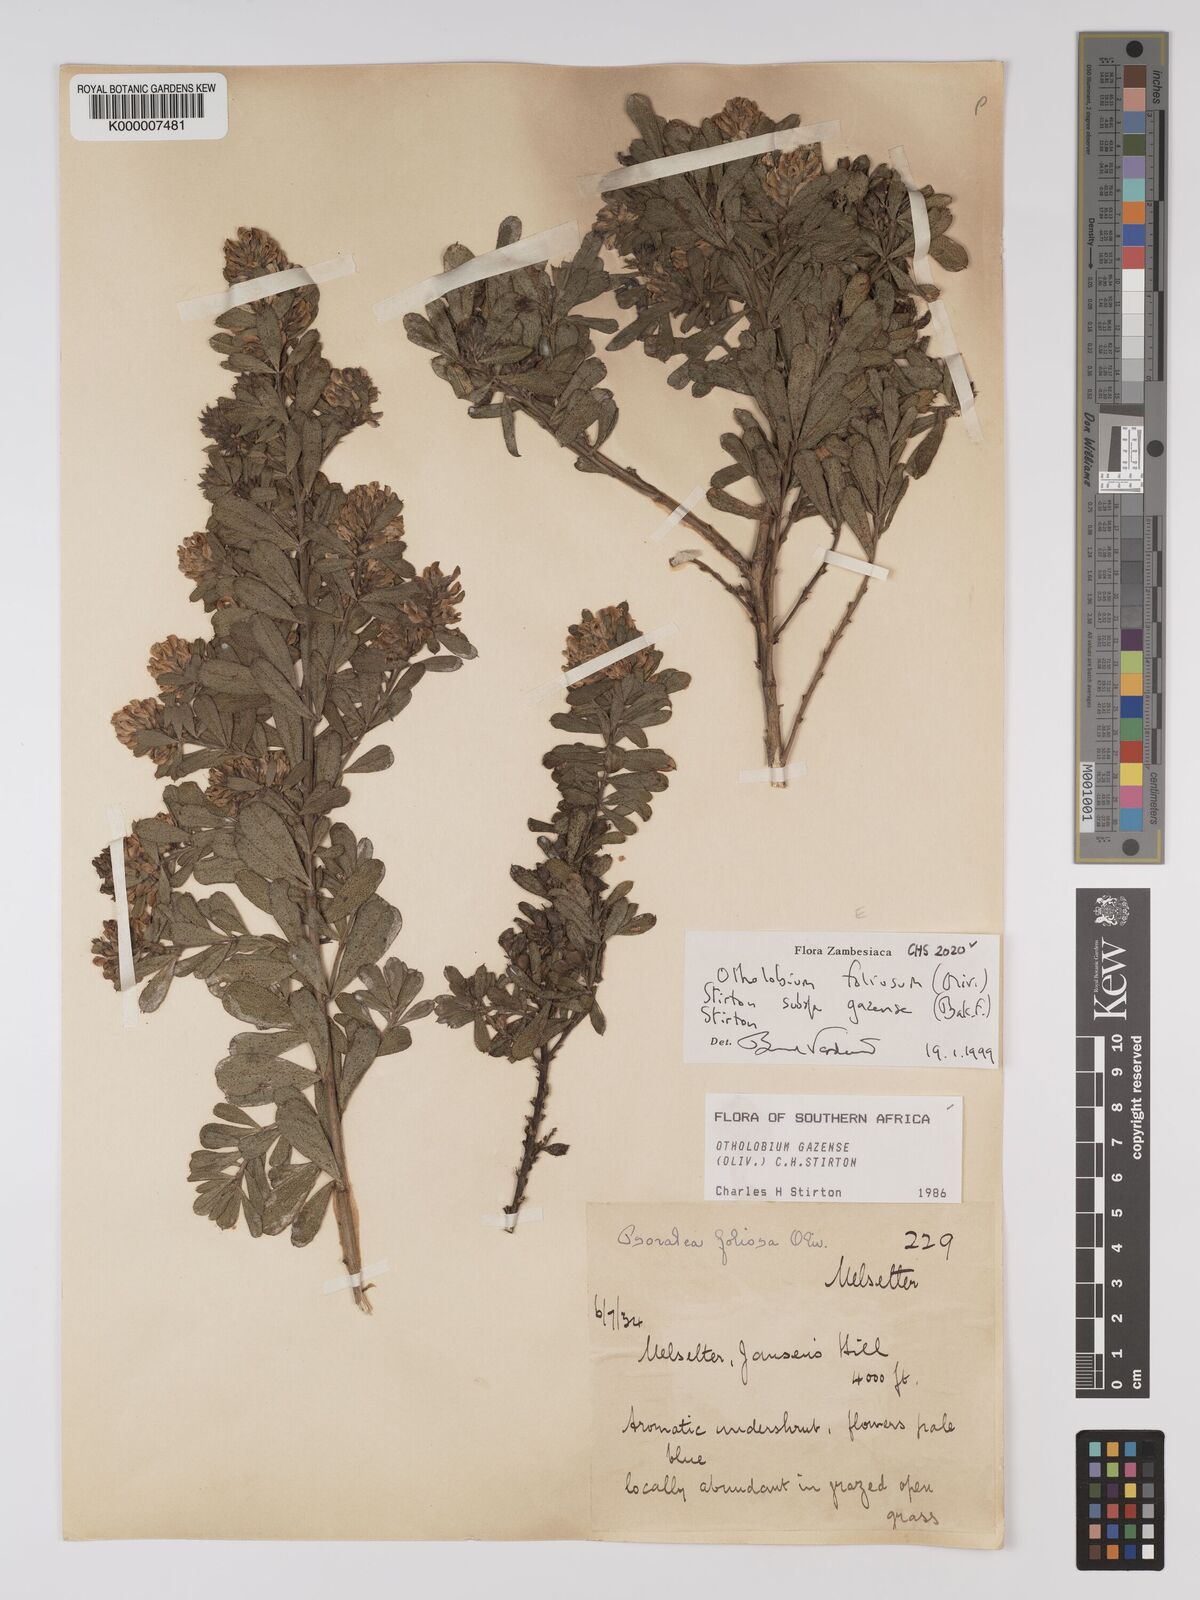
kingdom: Plantae
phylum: Tracheophyta
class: Magnoliopsida
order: Fabales
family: Fabaceae
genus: Psoralea
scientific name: Psoralea foliosa
